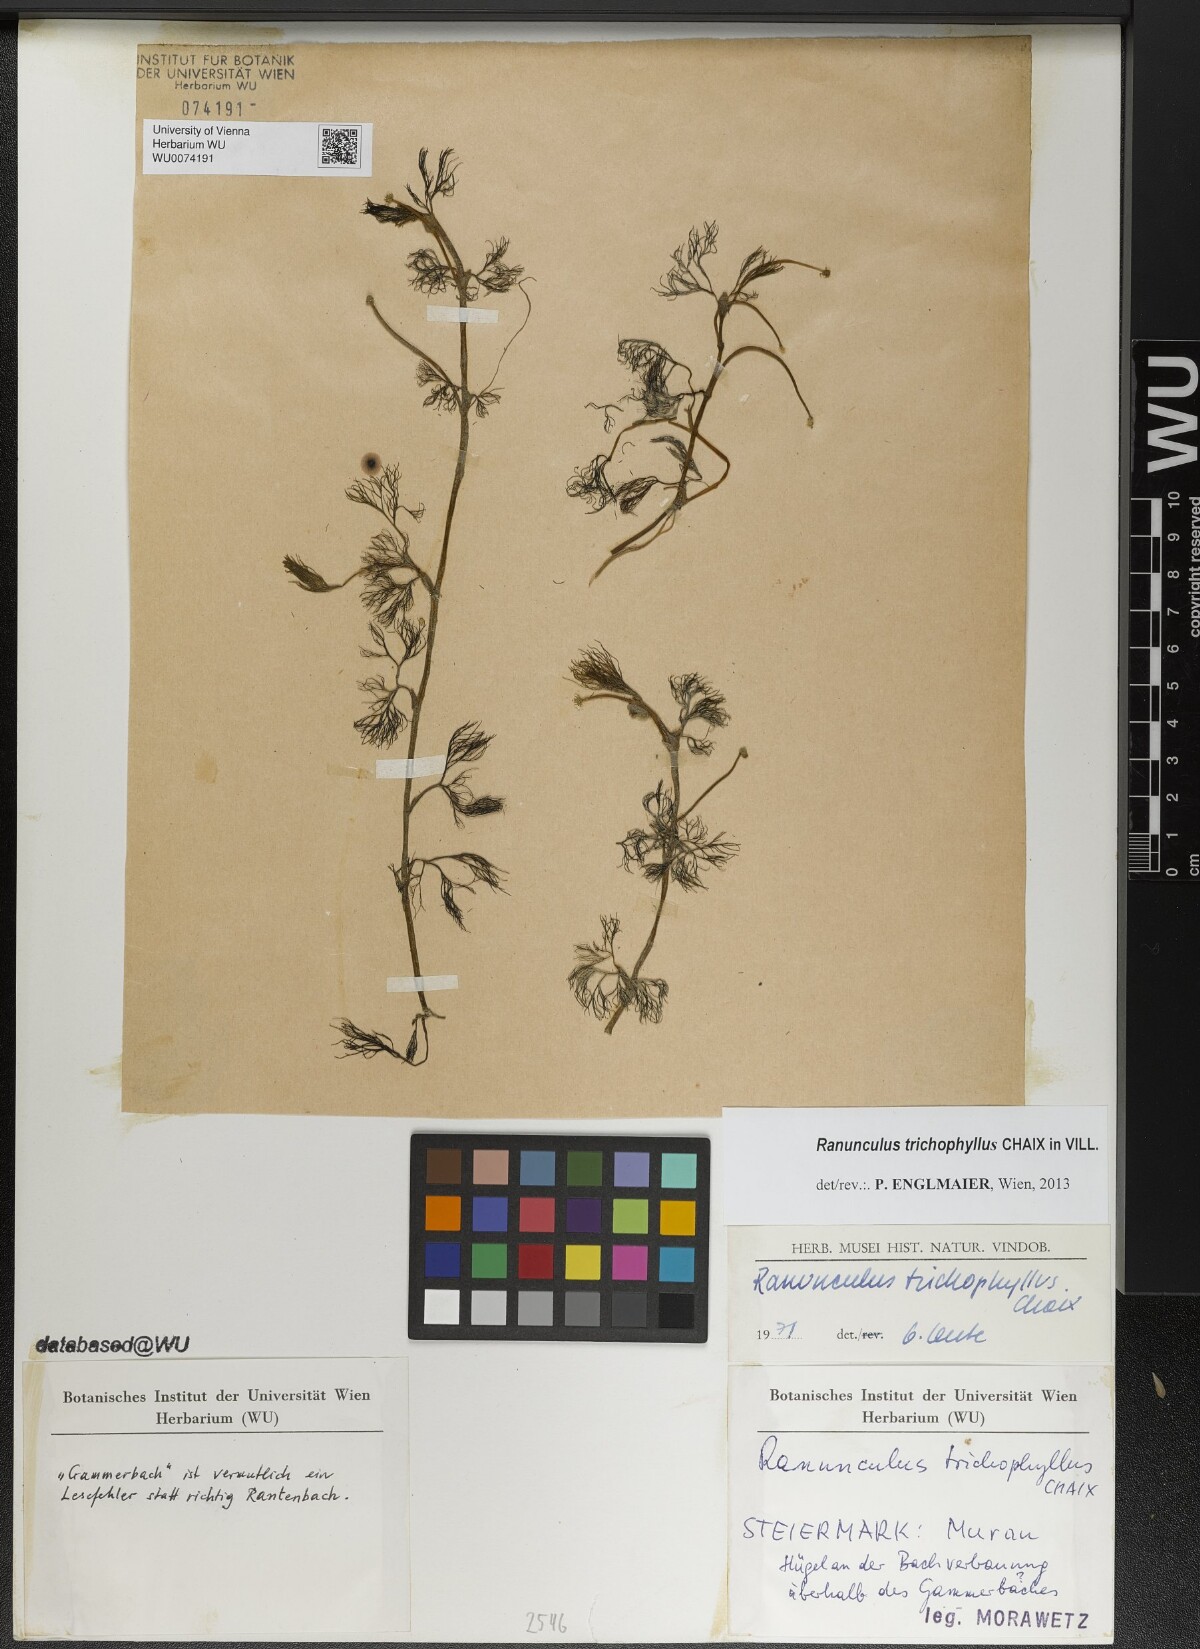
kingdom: Plantae
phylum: Tracheophyta
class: Magnoliopsida
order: Ranunculales
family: Ranunculaceae
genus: Ranunculus
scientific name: Ranunculus trichophyllus
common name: Thread-leaved water-crowfoot
